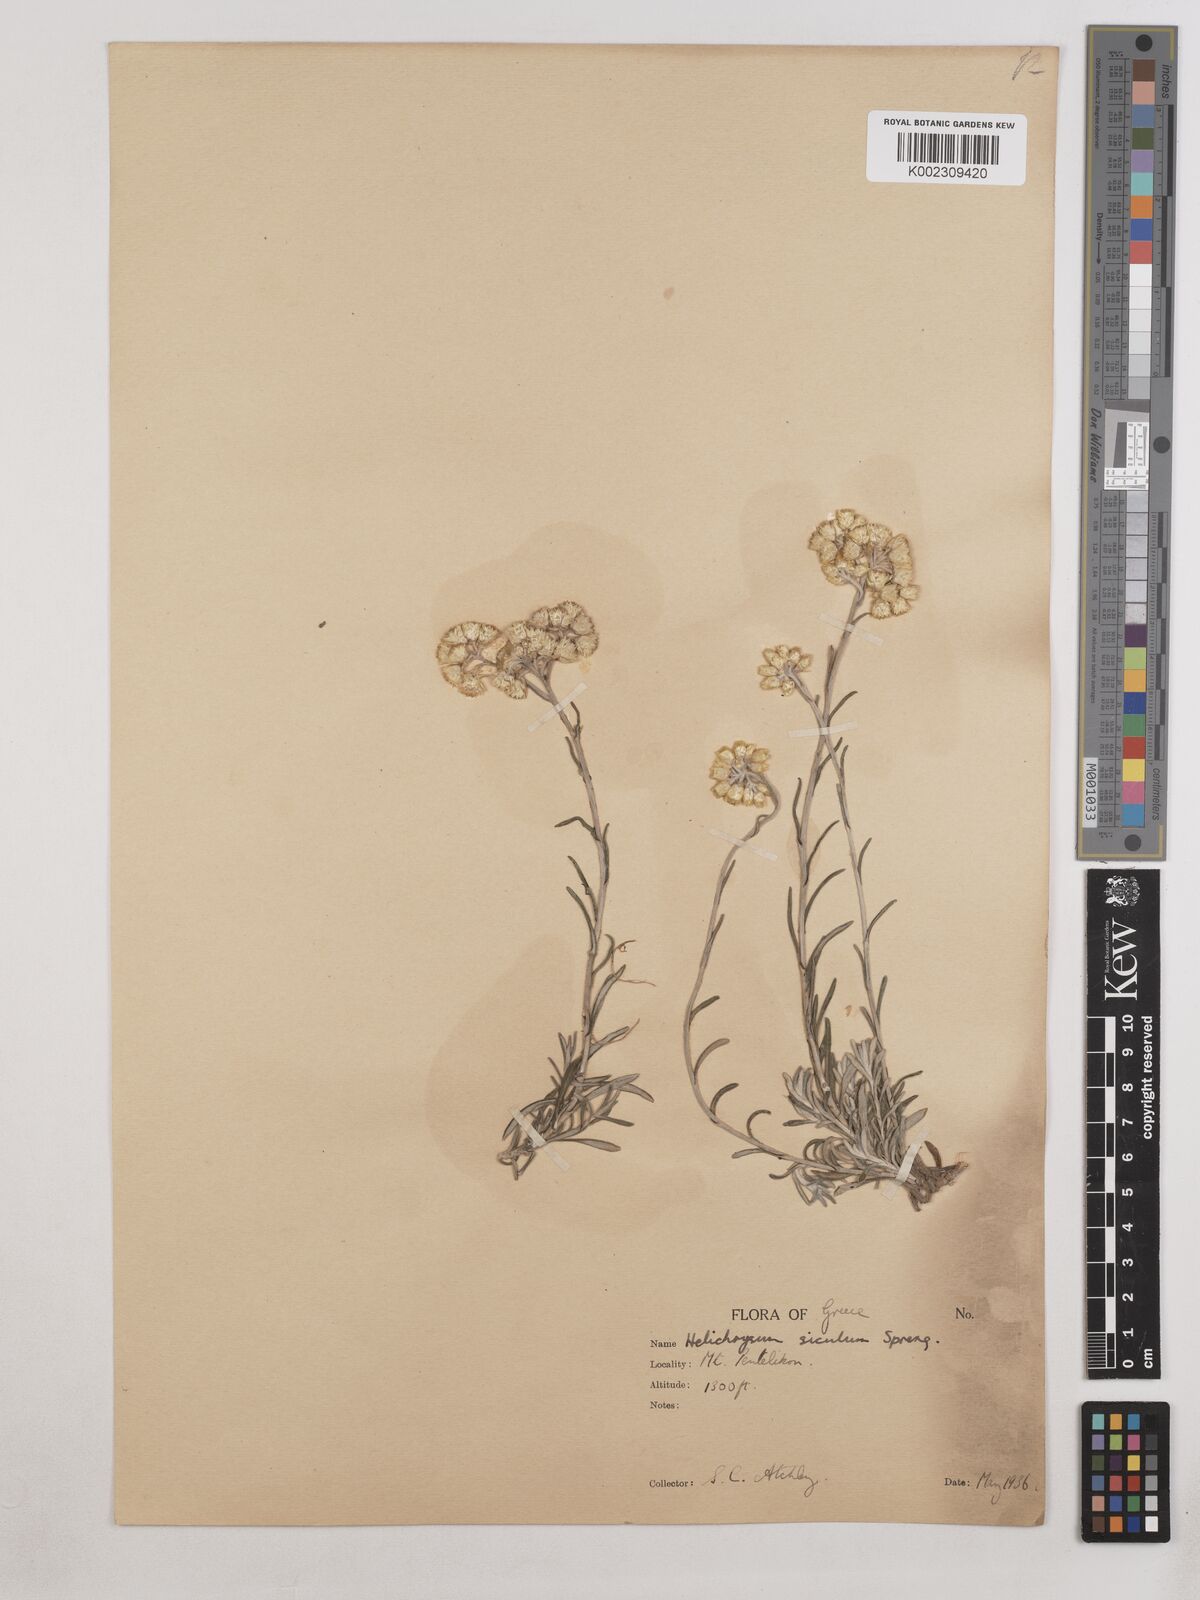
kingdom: Plantae
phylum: Tracheophyta
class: Magnoliopsida
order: Asterales
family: Asteraceae
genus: Helichrysum
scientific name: Helichrysum stoechas
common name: Goldilocks
